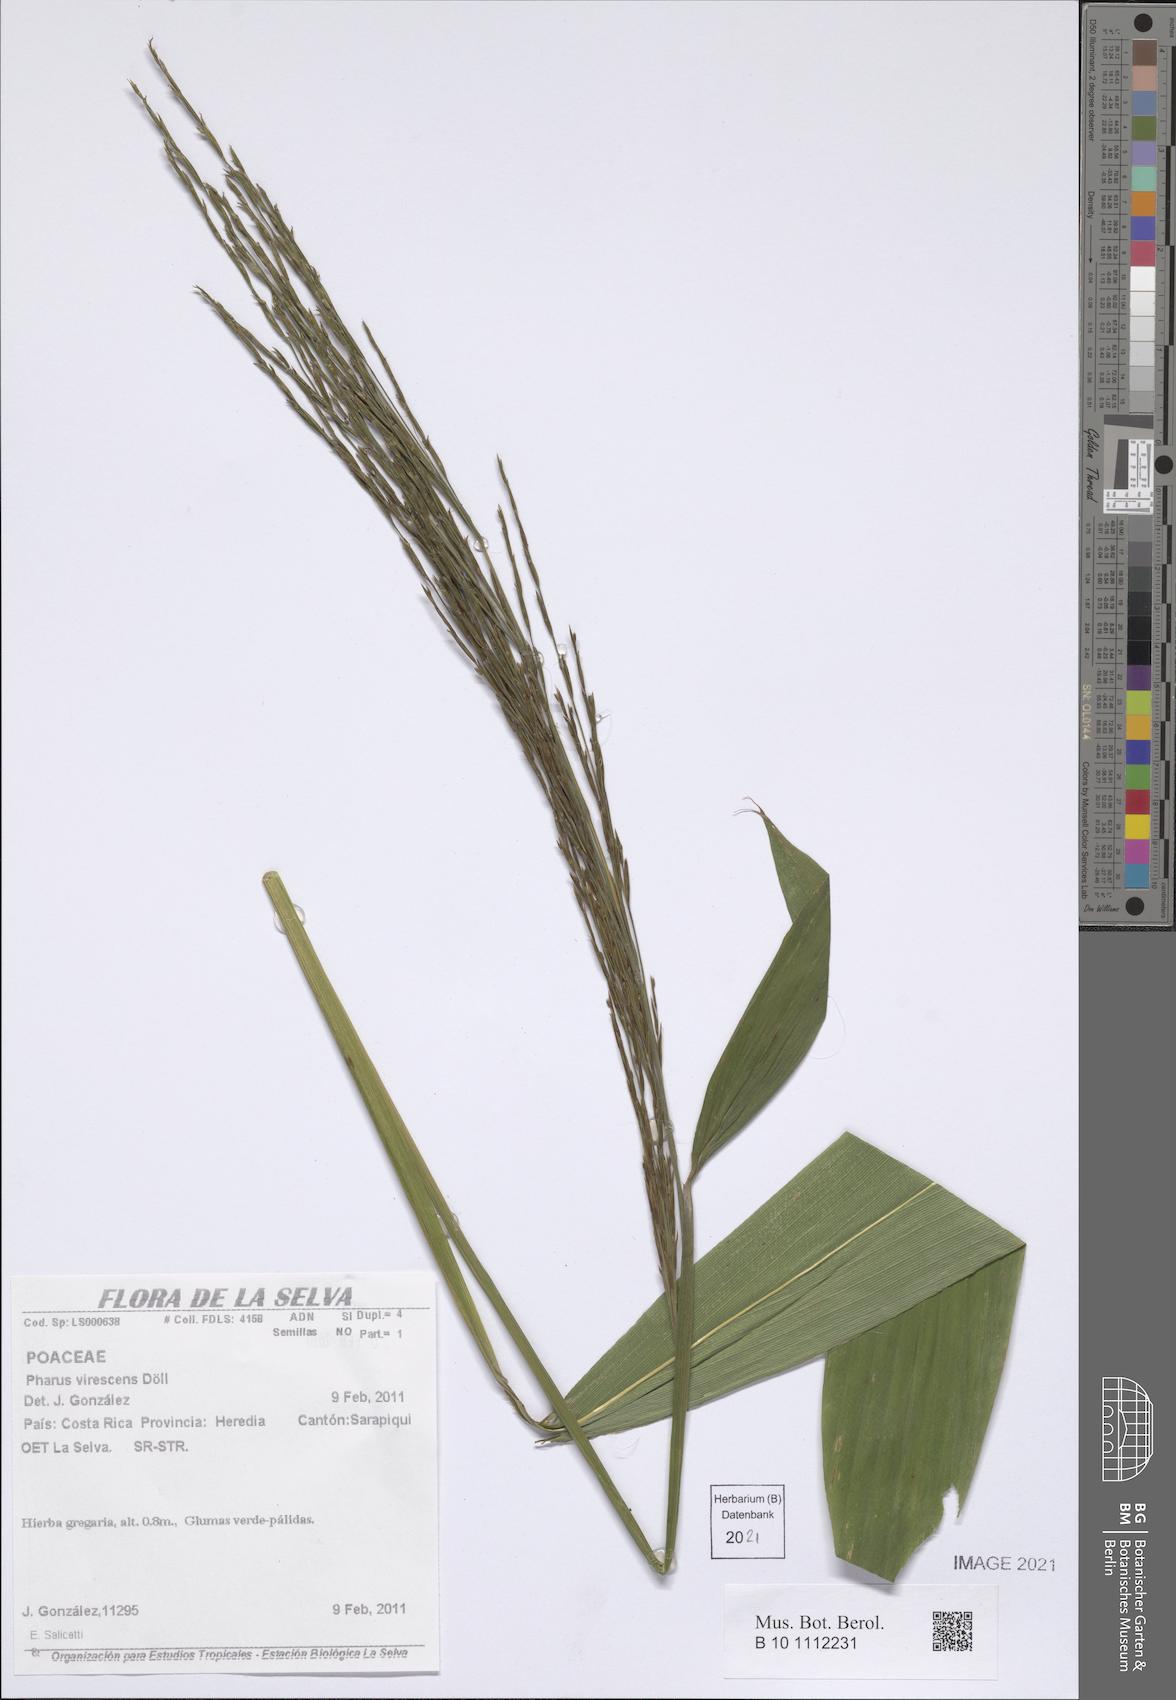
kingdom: Plantae
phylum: Tracheophyta
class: Liliopsida
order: Poales
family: Poaceae
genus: Pharus
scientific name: Pharus virescens
